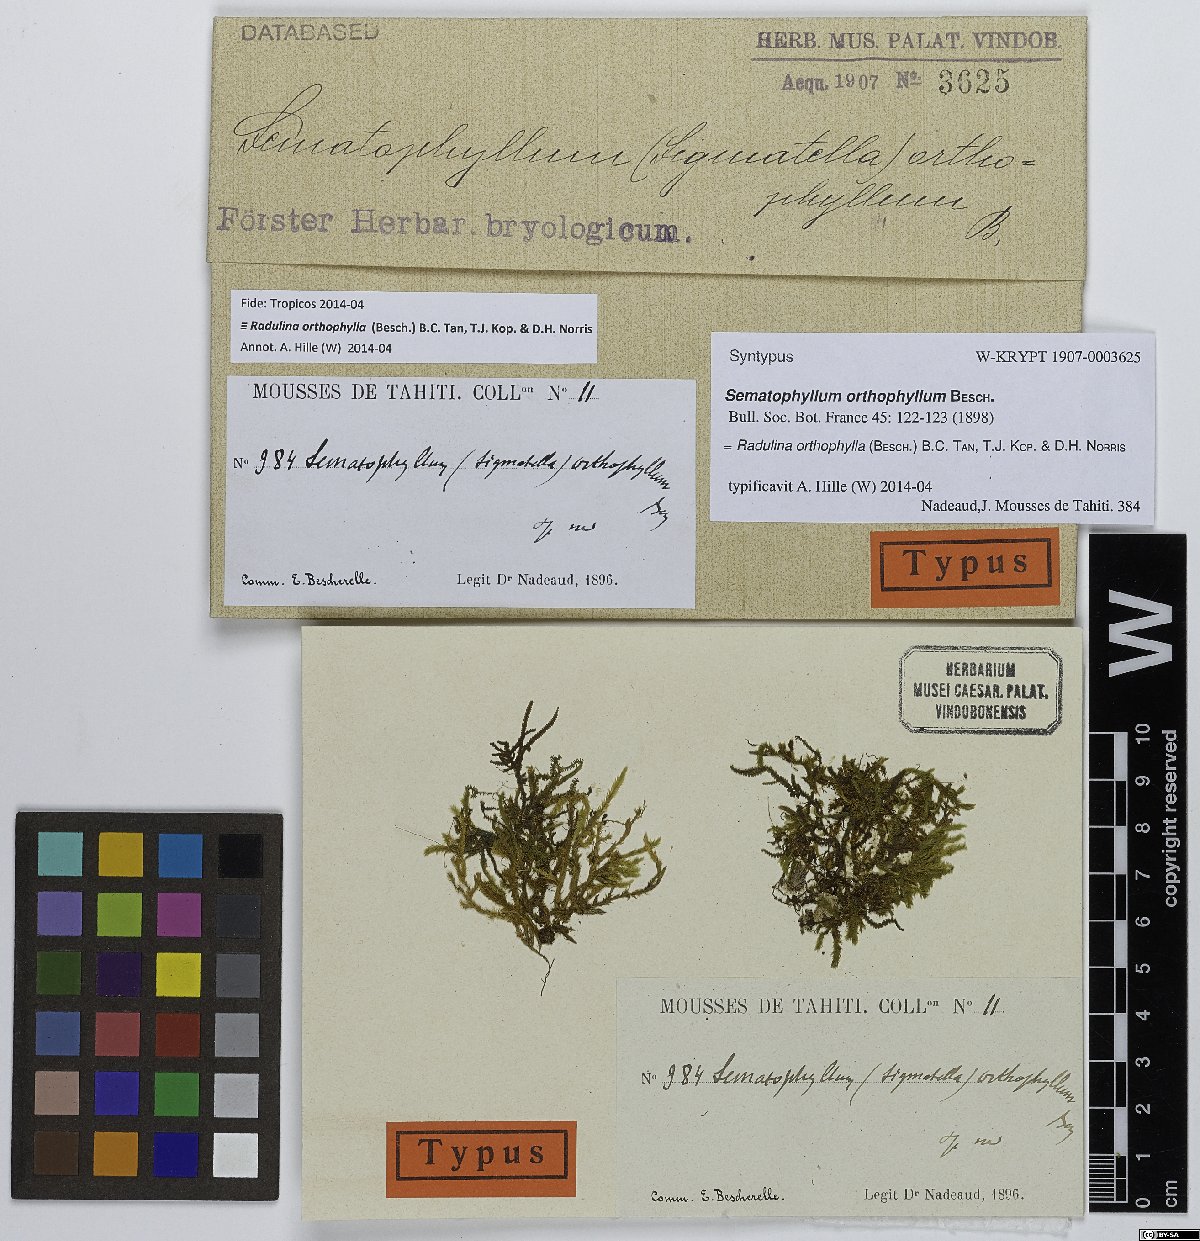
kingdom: Plantae
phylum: Bryophyta
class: Bryopsida
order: Hypnales
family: Sematophyllaceae
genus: Radulina
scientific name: Radulina orthophylla
